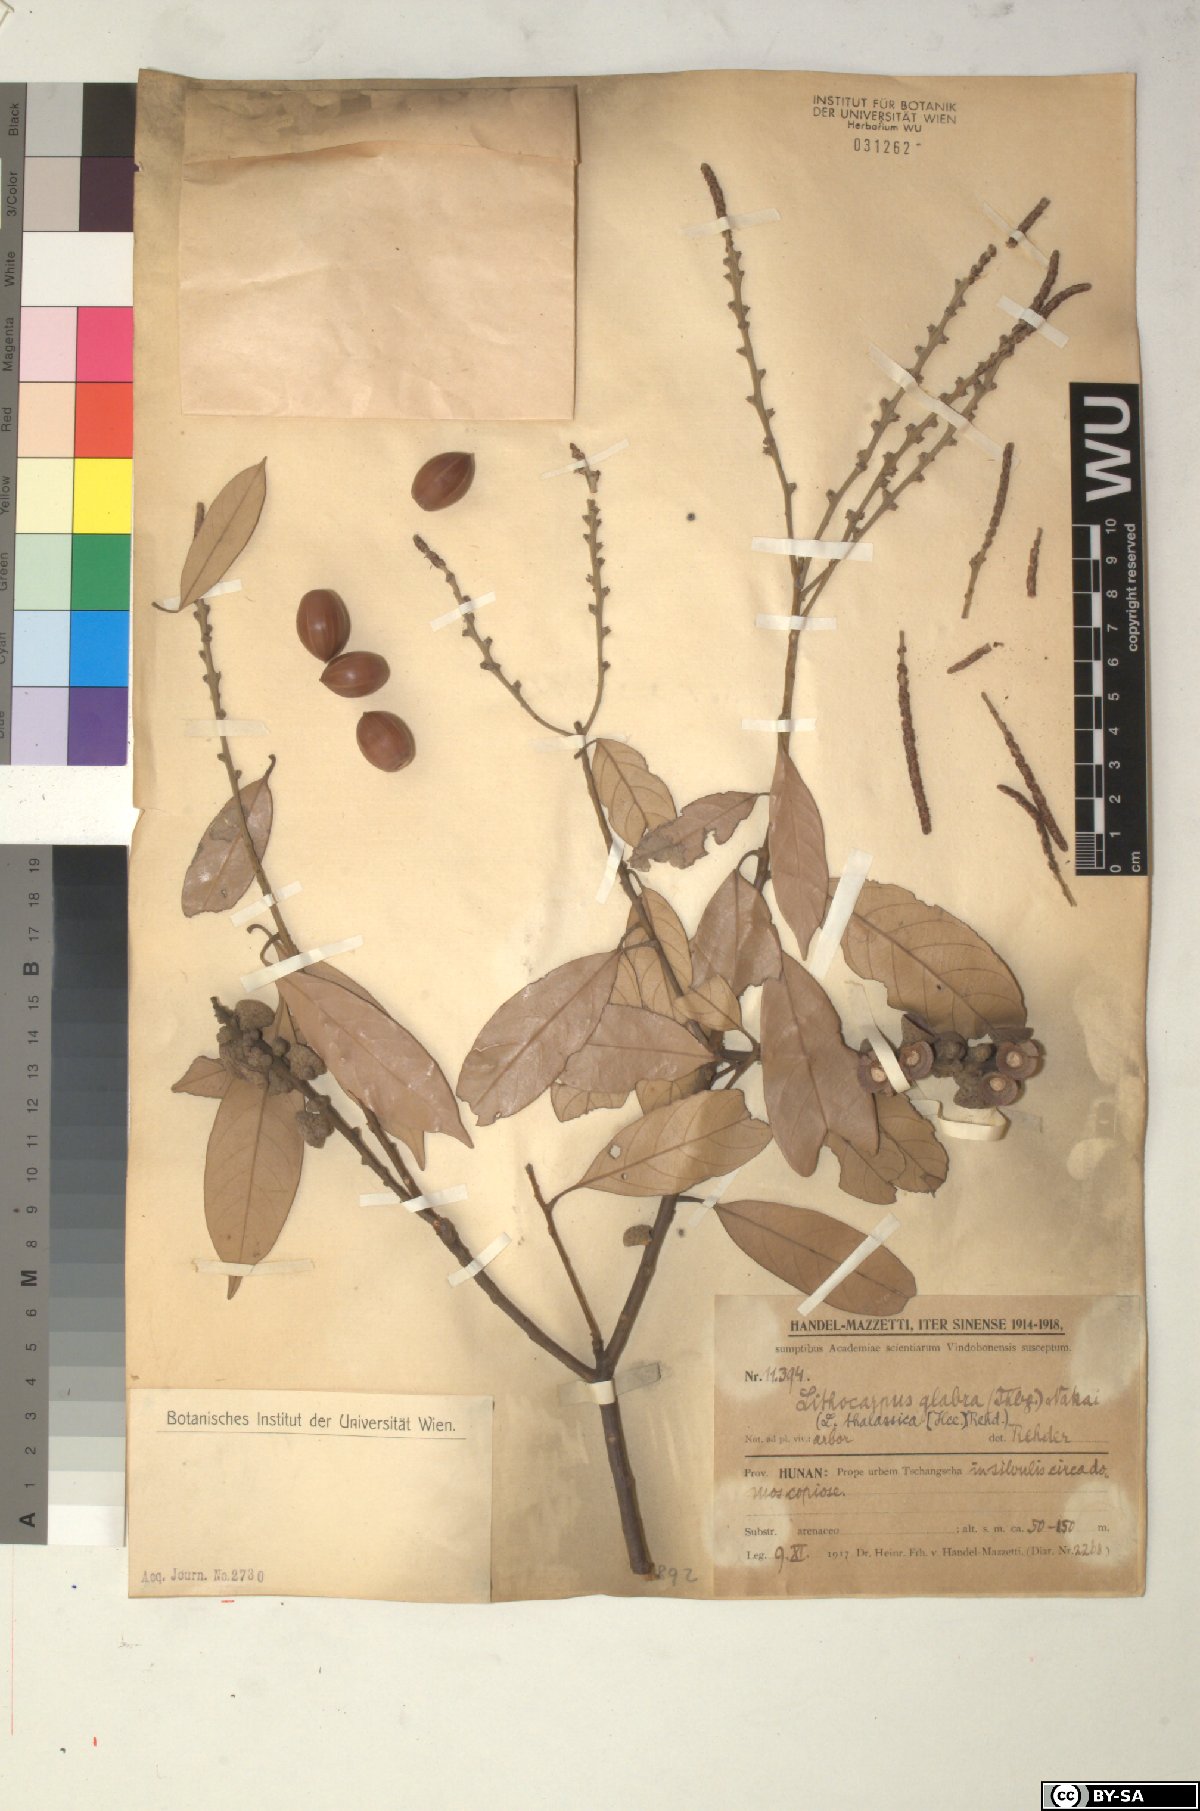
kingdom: Plantae
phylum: Tracheophyta
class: Magnoliopsida
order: Fagales
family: Fagaceae
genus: Lithocarpus
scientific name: Lithocarpus glaber
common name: Japanese-oak
